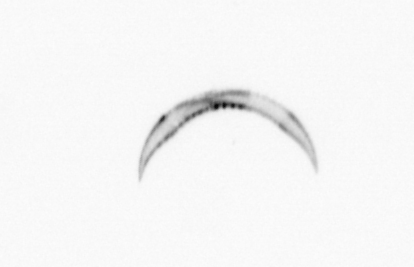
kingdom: Chromista
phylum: Ochrophyta
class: Bacillariophyceae
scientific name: Bacillariophyceae
